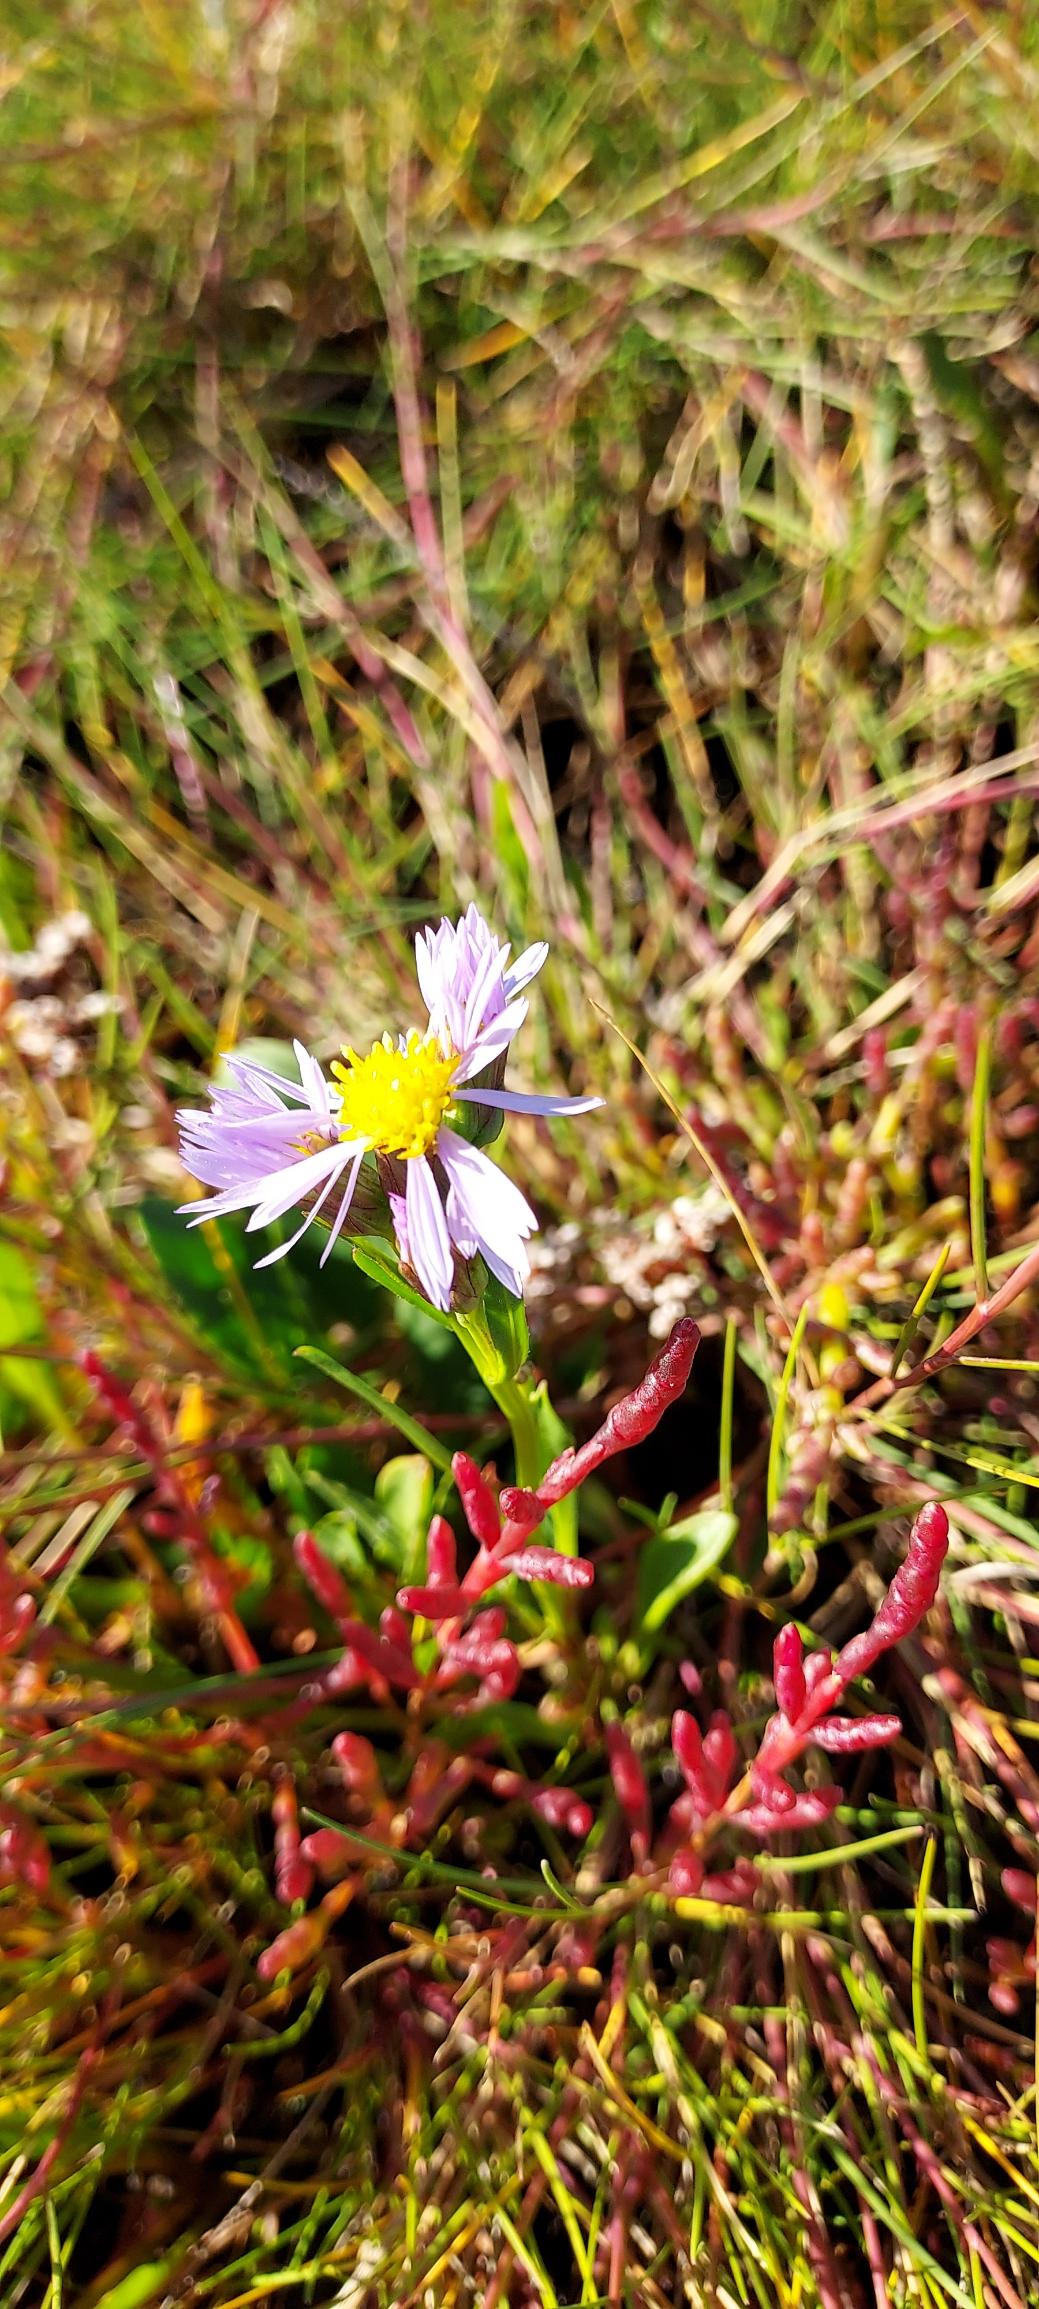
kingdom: Plantae
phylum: Tracheophyta
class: Magnoliopsida
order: Asterales
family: Asteraceae
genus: Tripolium
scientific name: Tripolium pannonicum
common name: Strandasters
